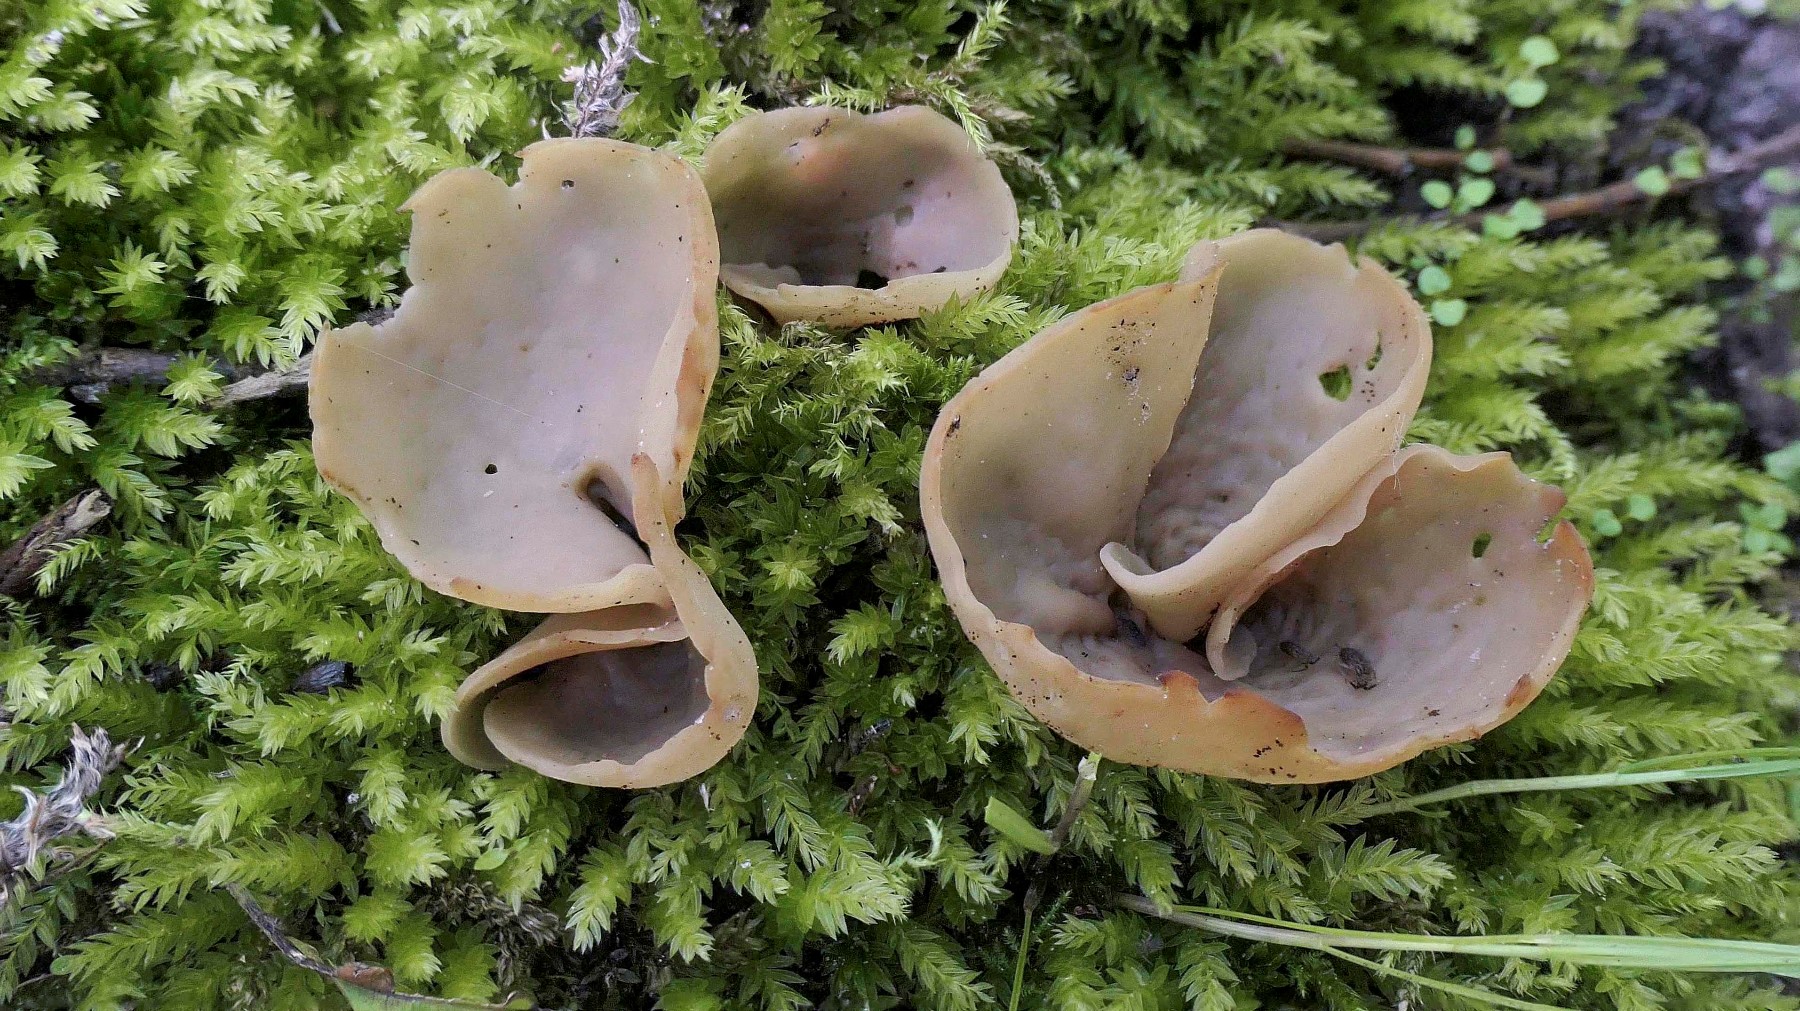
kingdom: Fungi
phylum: Ascomycota
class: Pezizomycetes
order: Pezizales
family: Otideaceae
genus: Otidea
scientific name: Otidea alutacea
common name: læder-ørebæger
